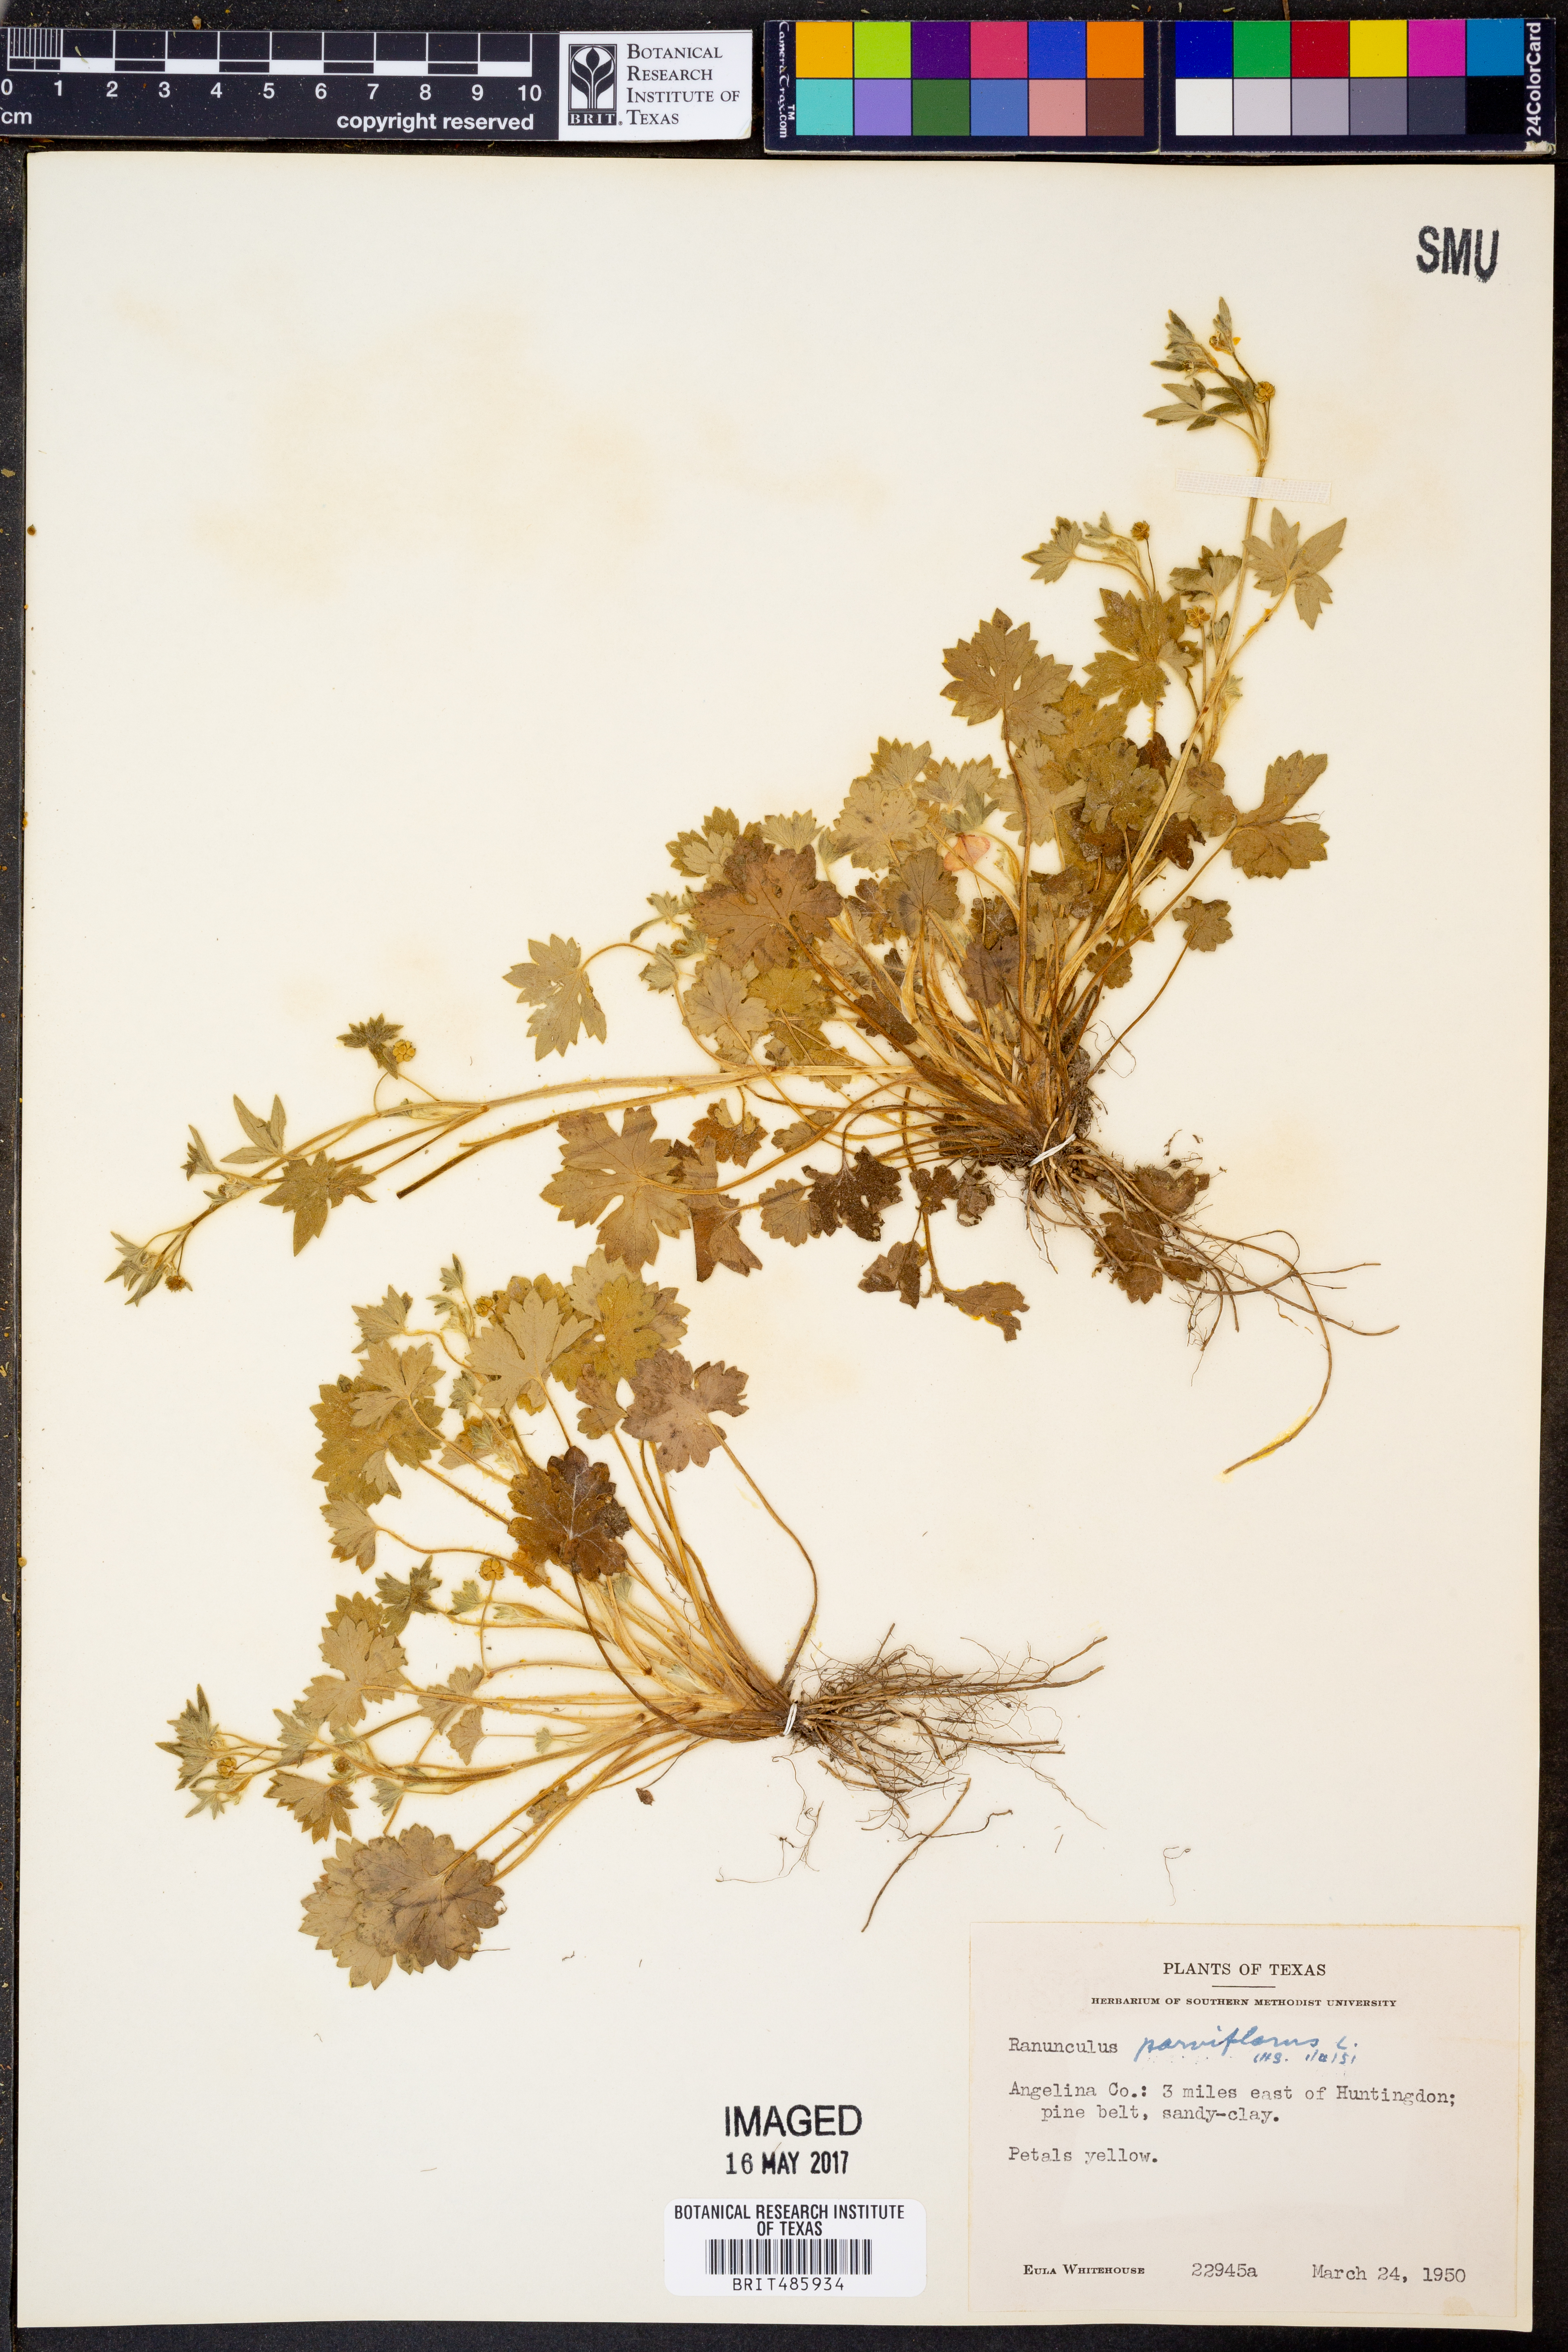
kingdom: Plantae
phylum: Tracheophyta
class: Magnoliopsida
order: Ranunculales
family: Ranunculaceae
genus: Ranunculus
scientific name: Ranunculus parviflorus
